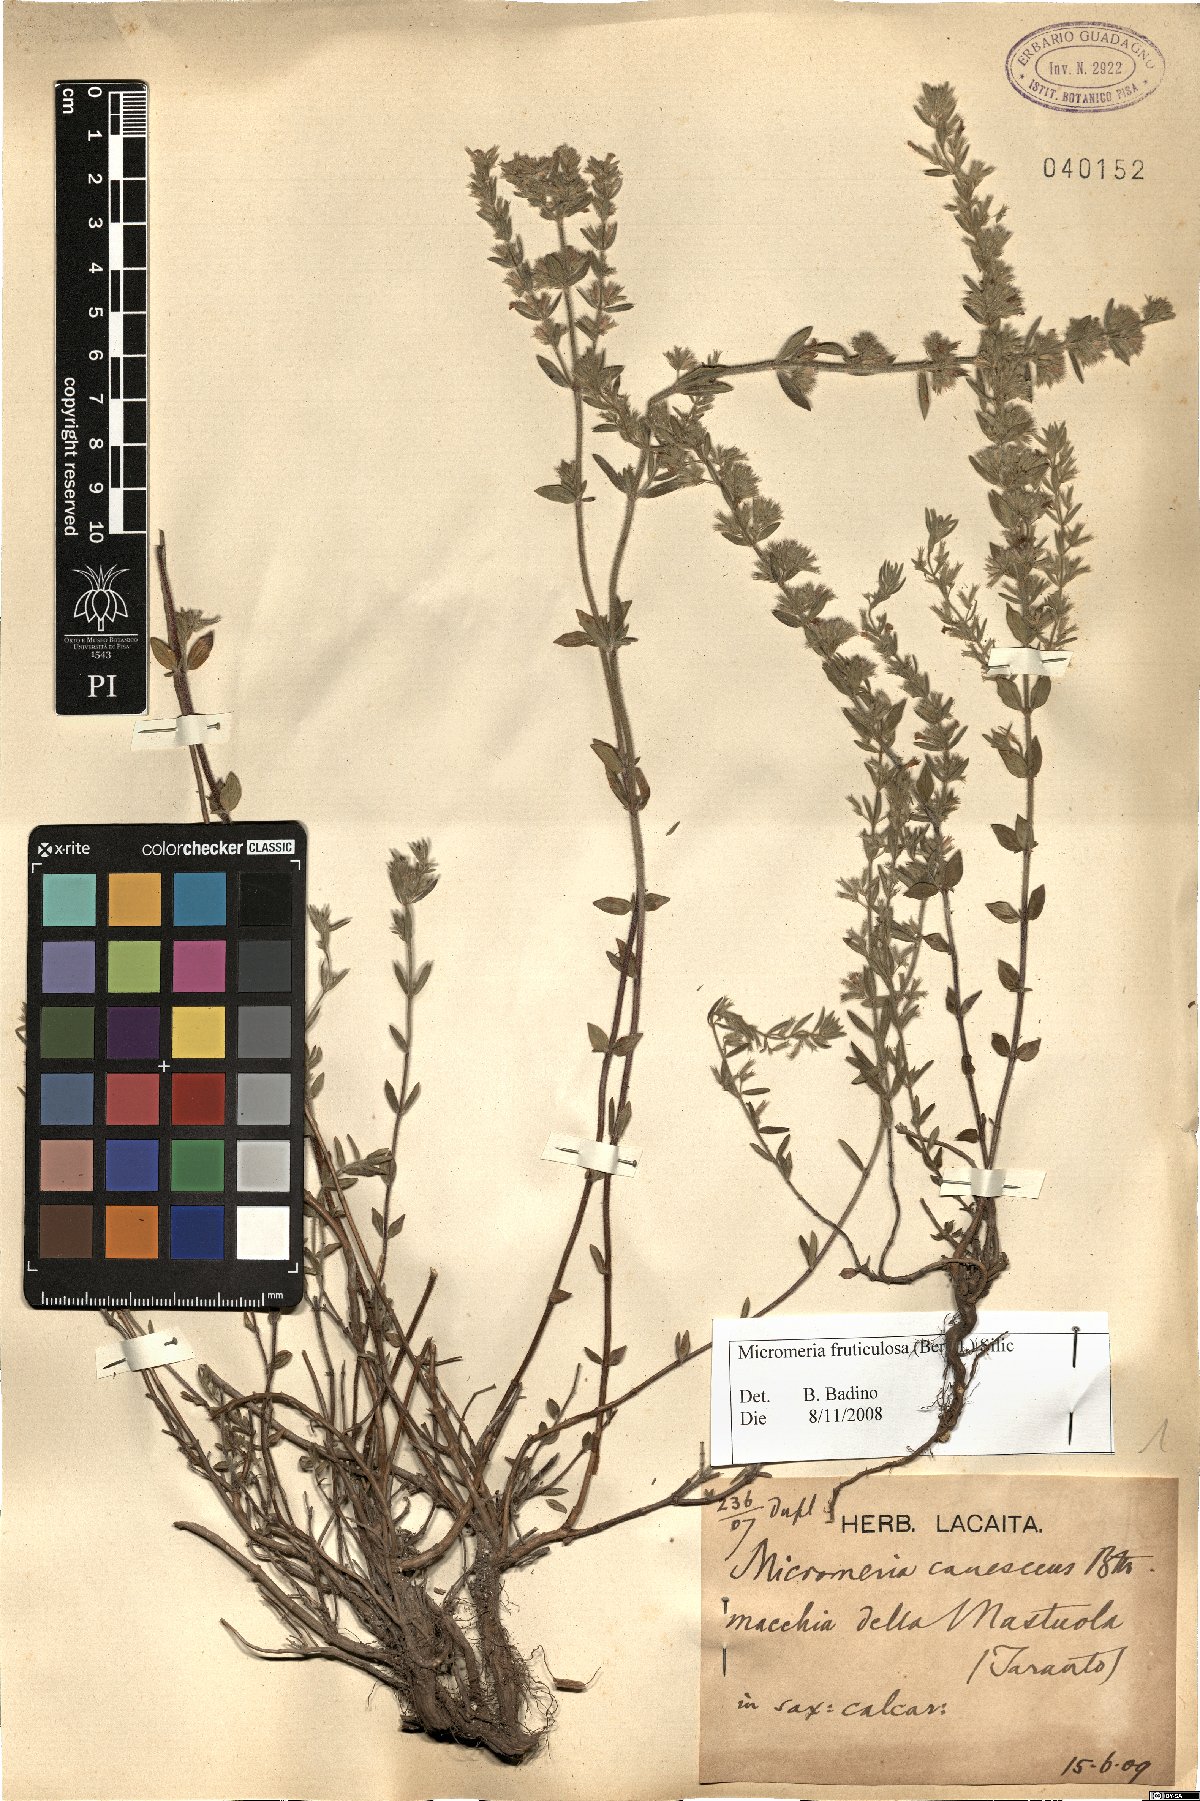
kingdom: Plantae
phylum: Tracheophyta
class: Magnoliopsida
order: Lamiales
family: Lamiaceae
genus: Micromeria
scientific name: Micromeria graeca
